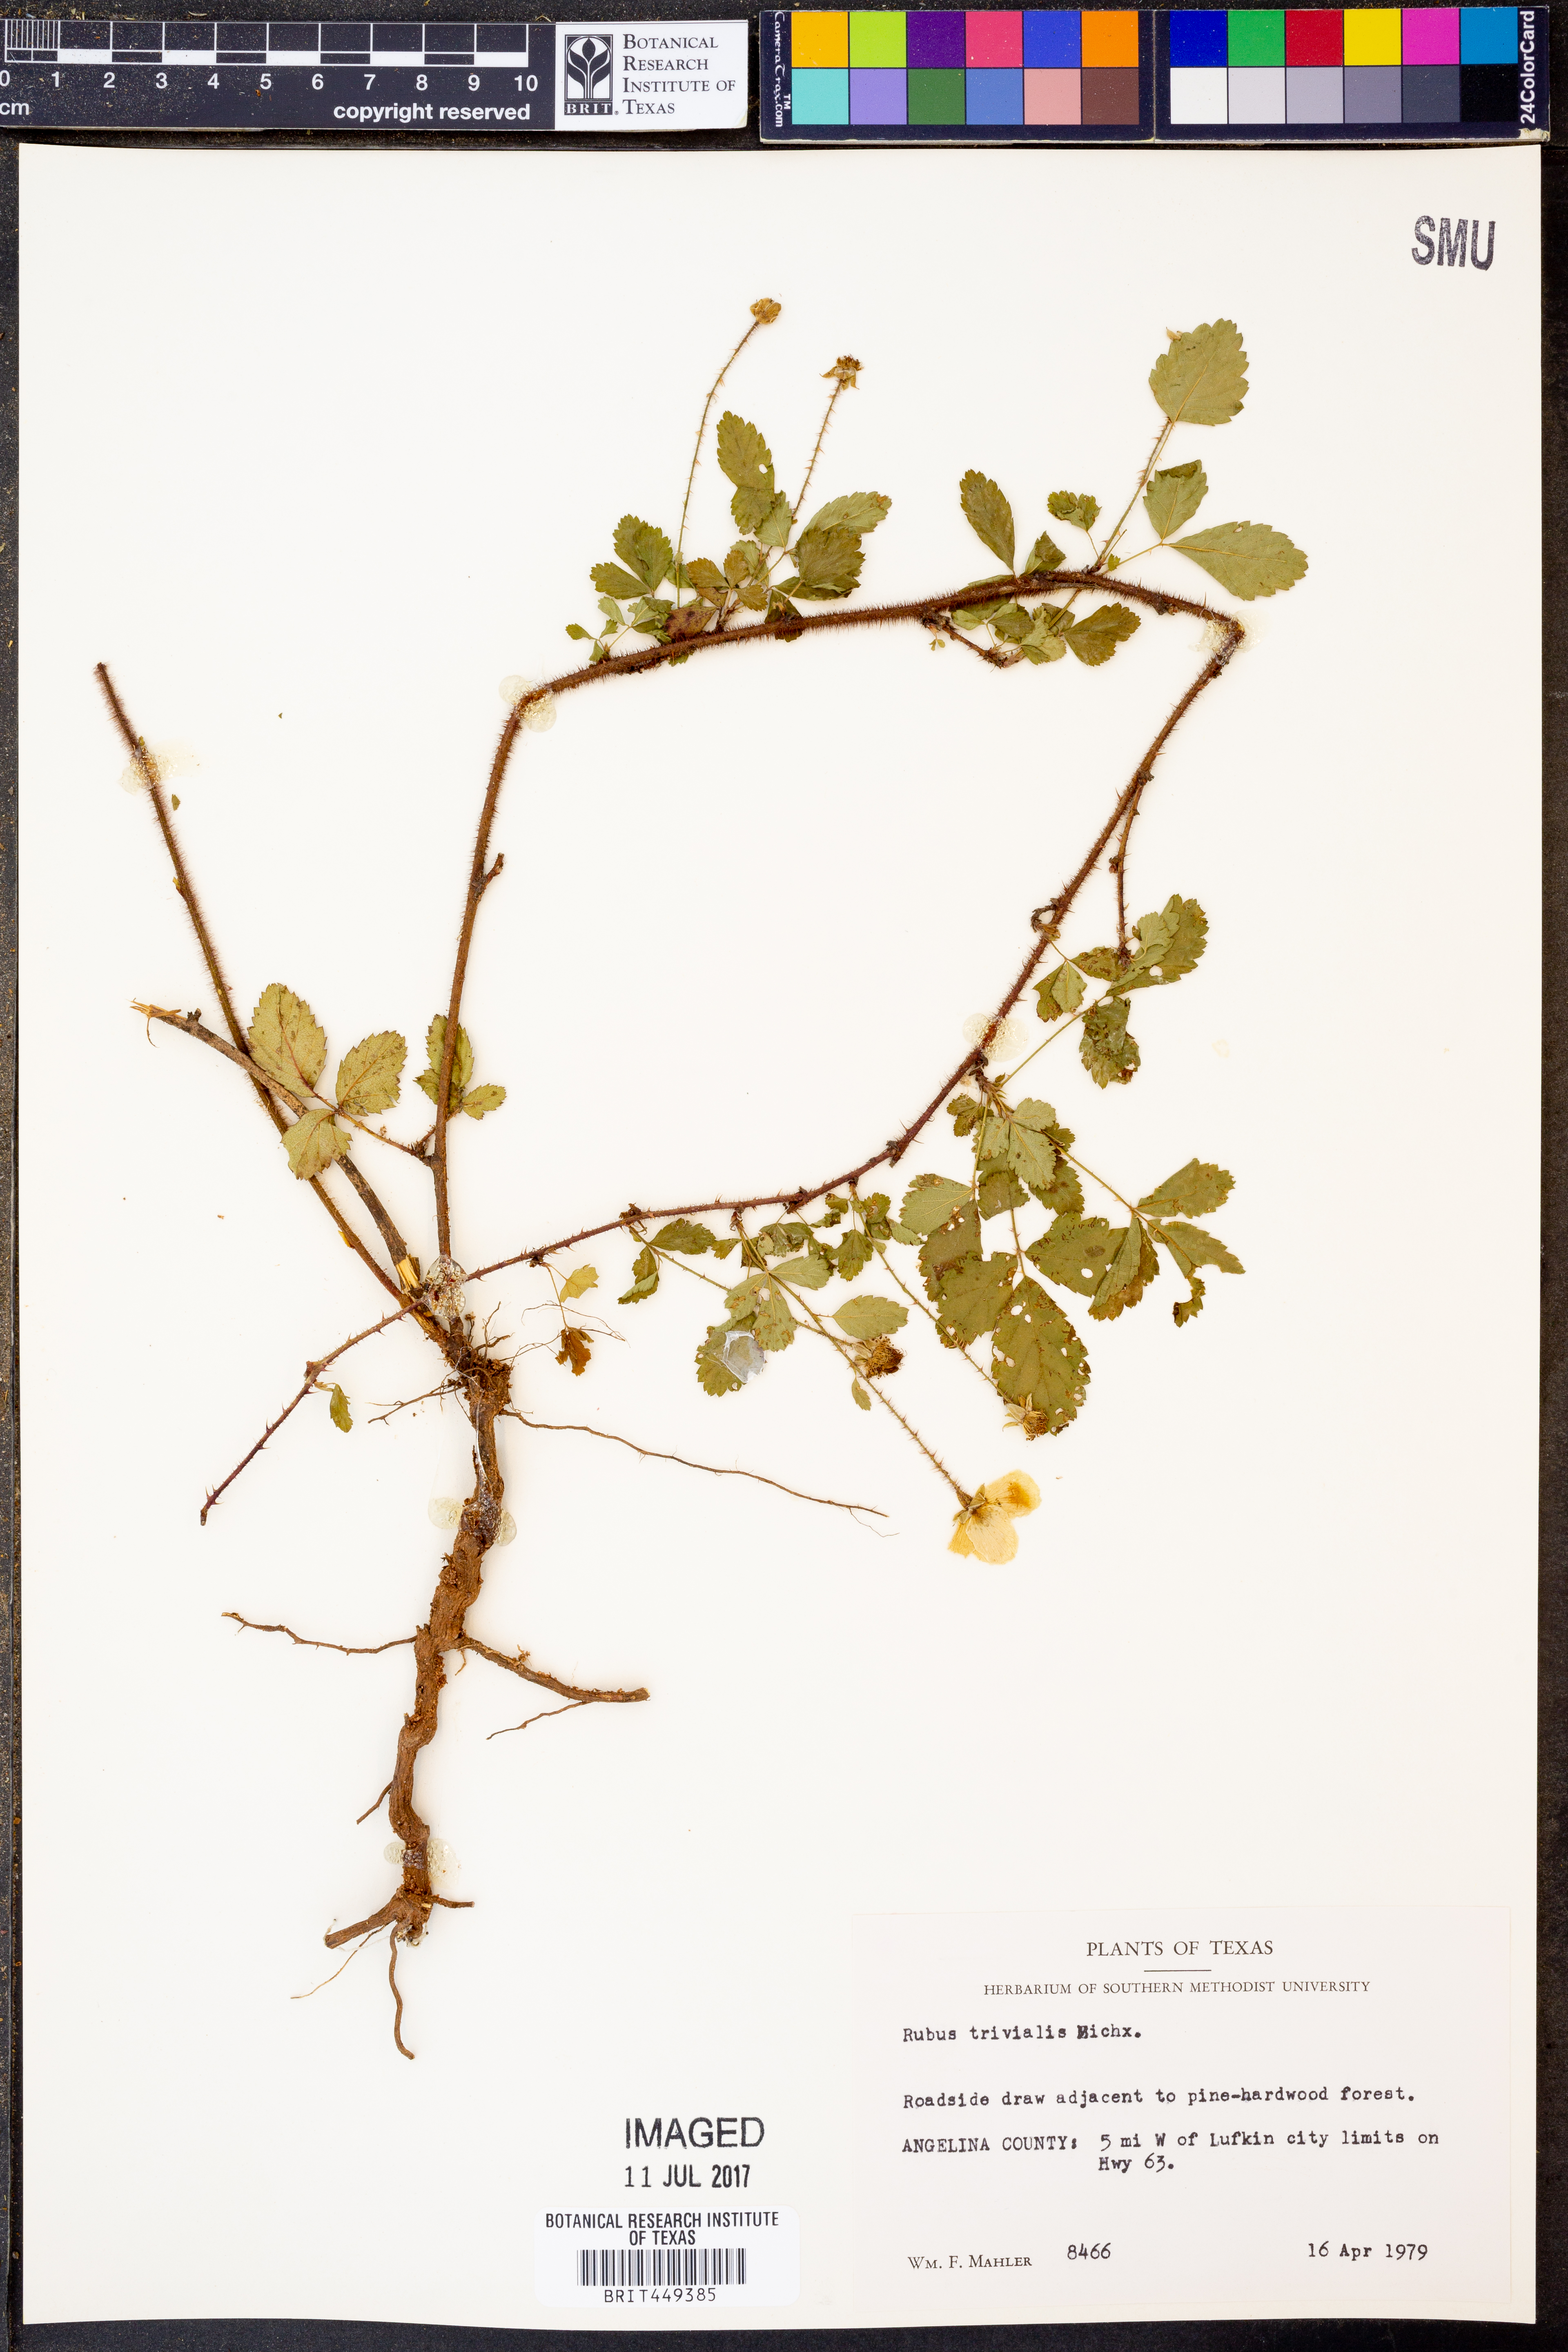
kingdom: Plantae
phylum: Tracheophyta
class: Magnoliopsida
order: Rosales
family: Rosaceae
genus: Rubus
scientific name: Rubus trivialis
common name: Southern dewberry
